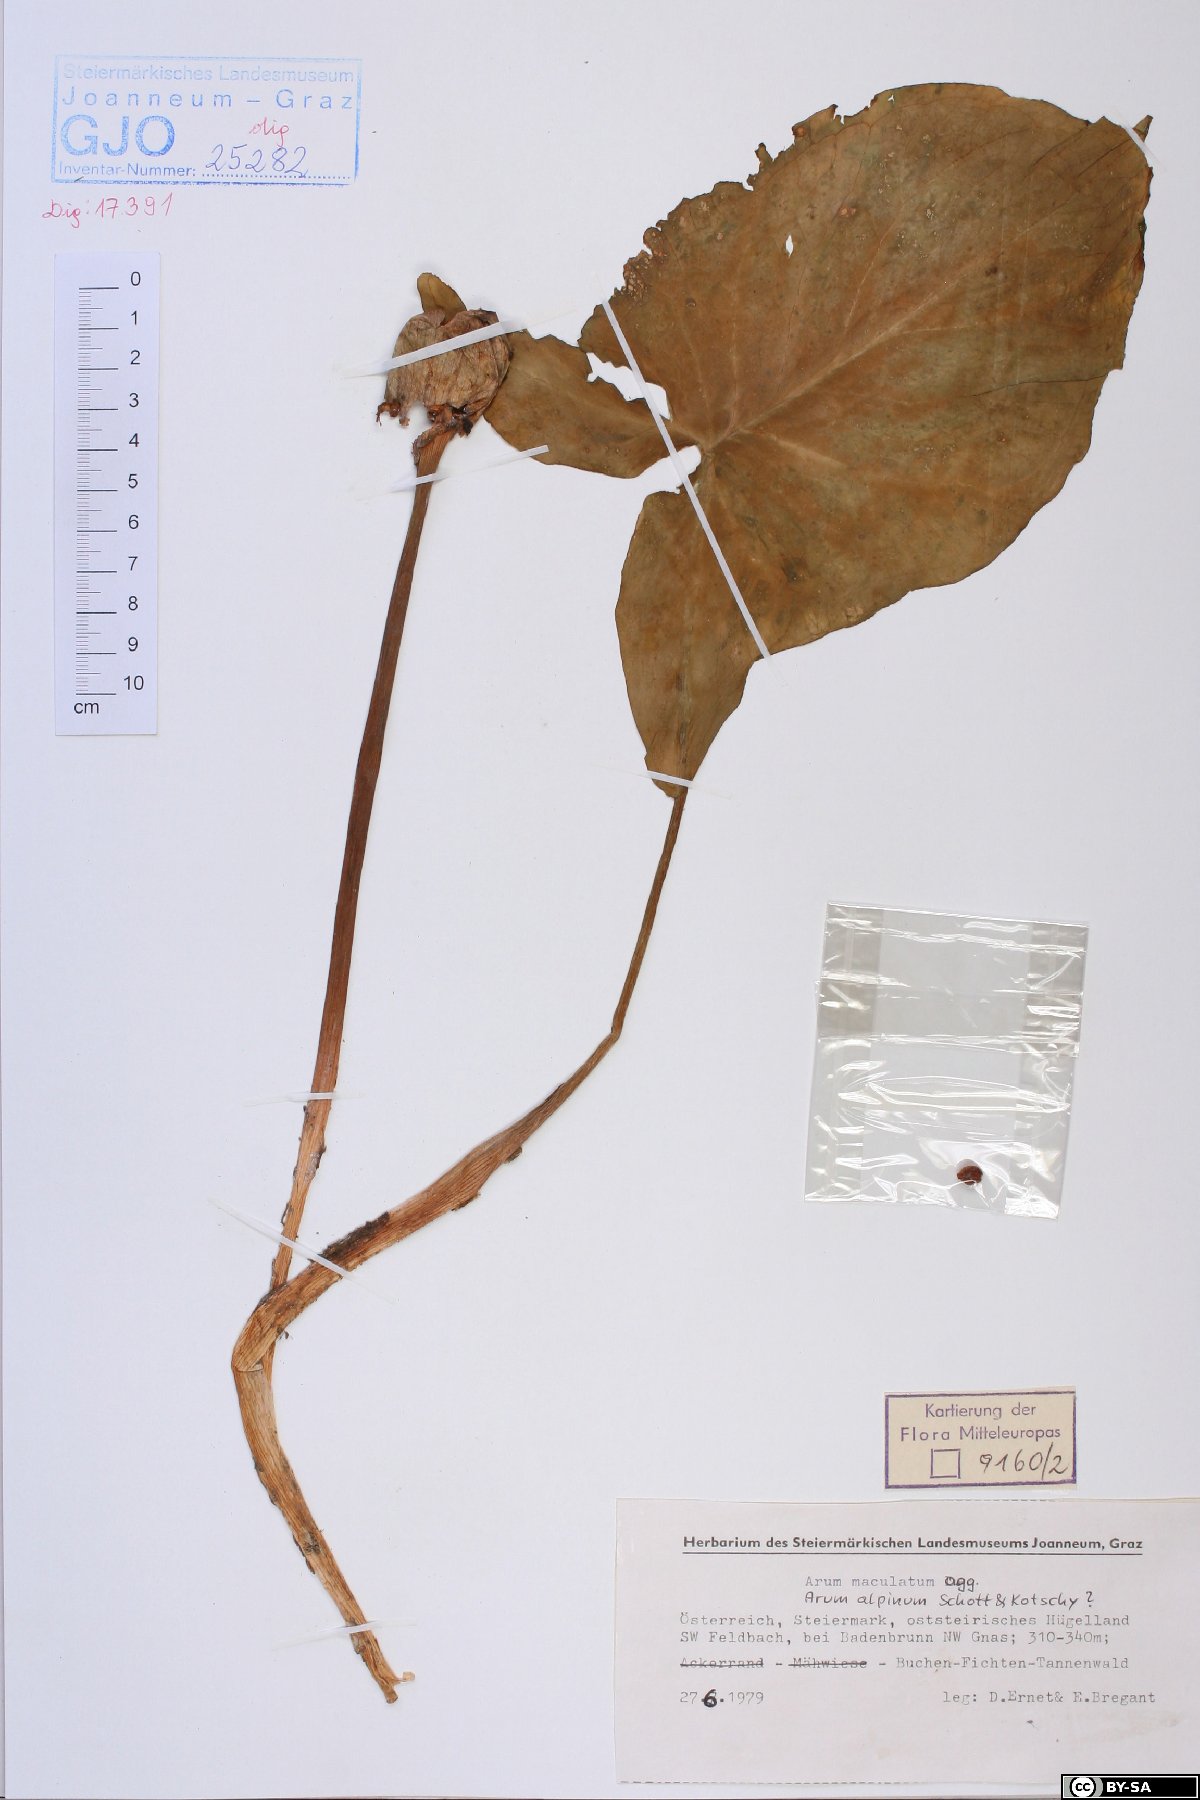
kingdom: Plantae
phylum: Tracheophyta
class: Liliopsida
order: Alismatales
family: Araceae
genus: Arum
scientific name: Arum maculatum
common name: Lords-and-ladies
